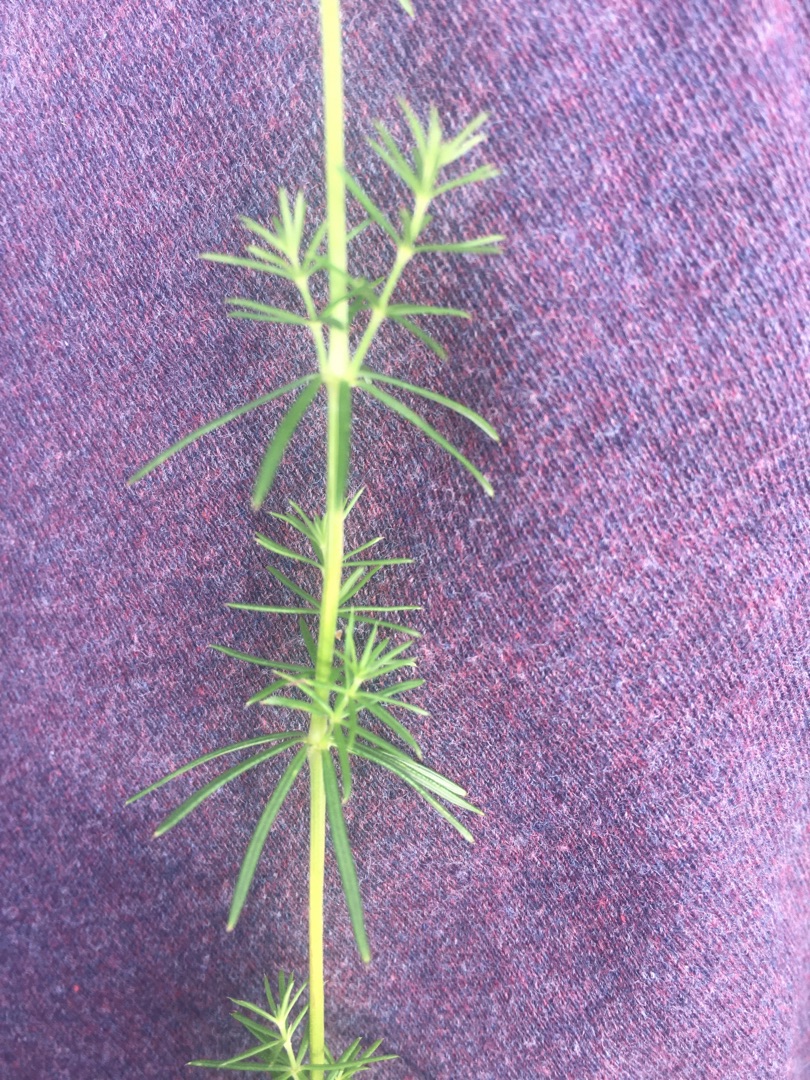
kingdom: Plantae
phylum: Tracheophyta
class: Magnoliopsida
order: Gentianales
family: Rubiaceae
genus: Galium
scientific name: Galium verum
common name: Gul snerre
